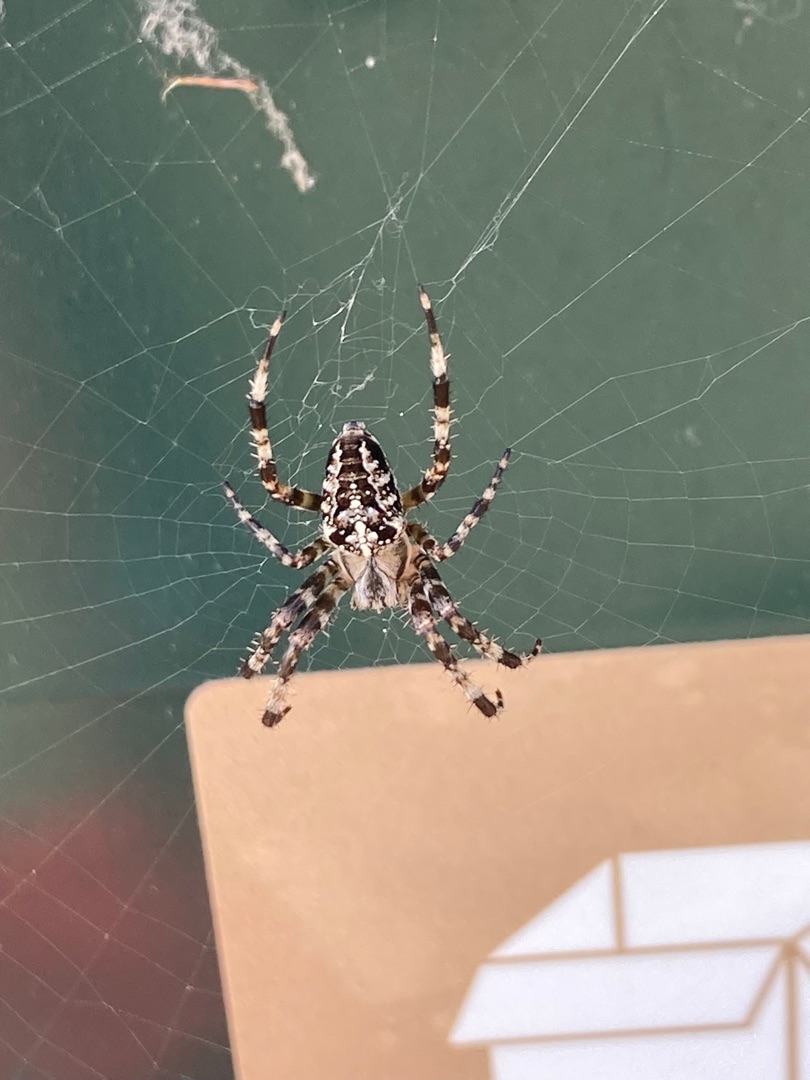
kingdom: Animalia
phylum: Arthropoda
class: Arachnida
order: Araneae
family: Araneidae
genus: Araneus
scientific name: Araneus diadematus
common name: Korsedderkop
